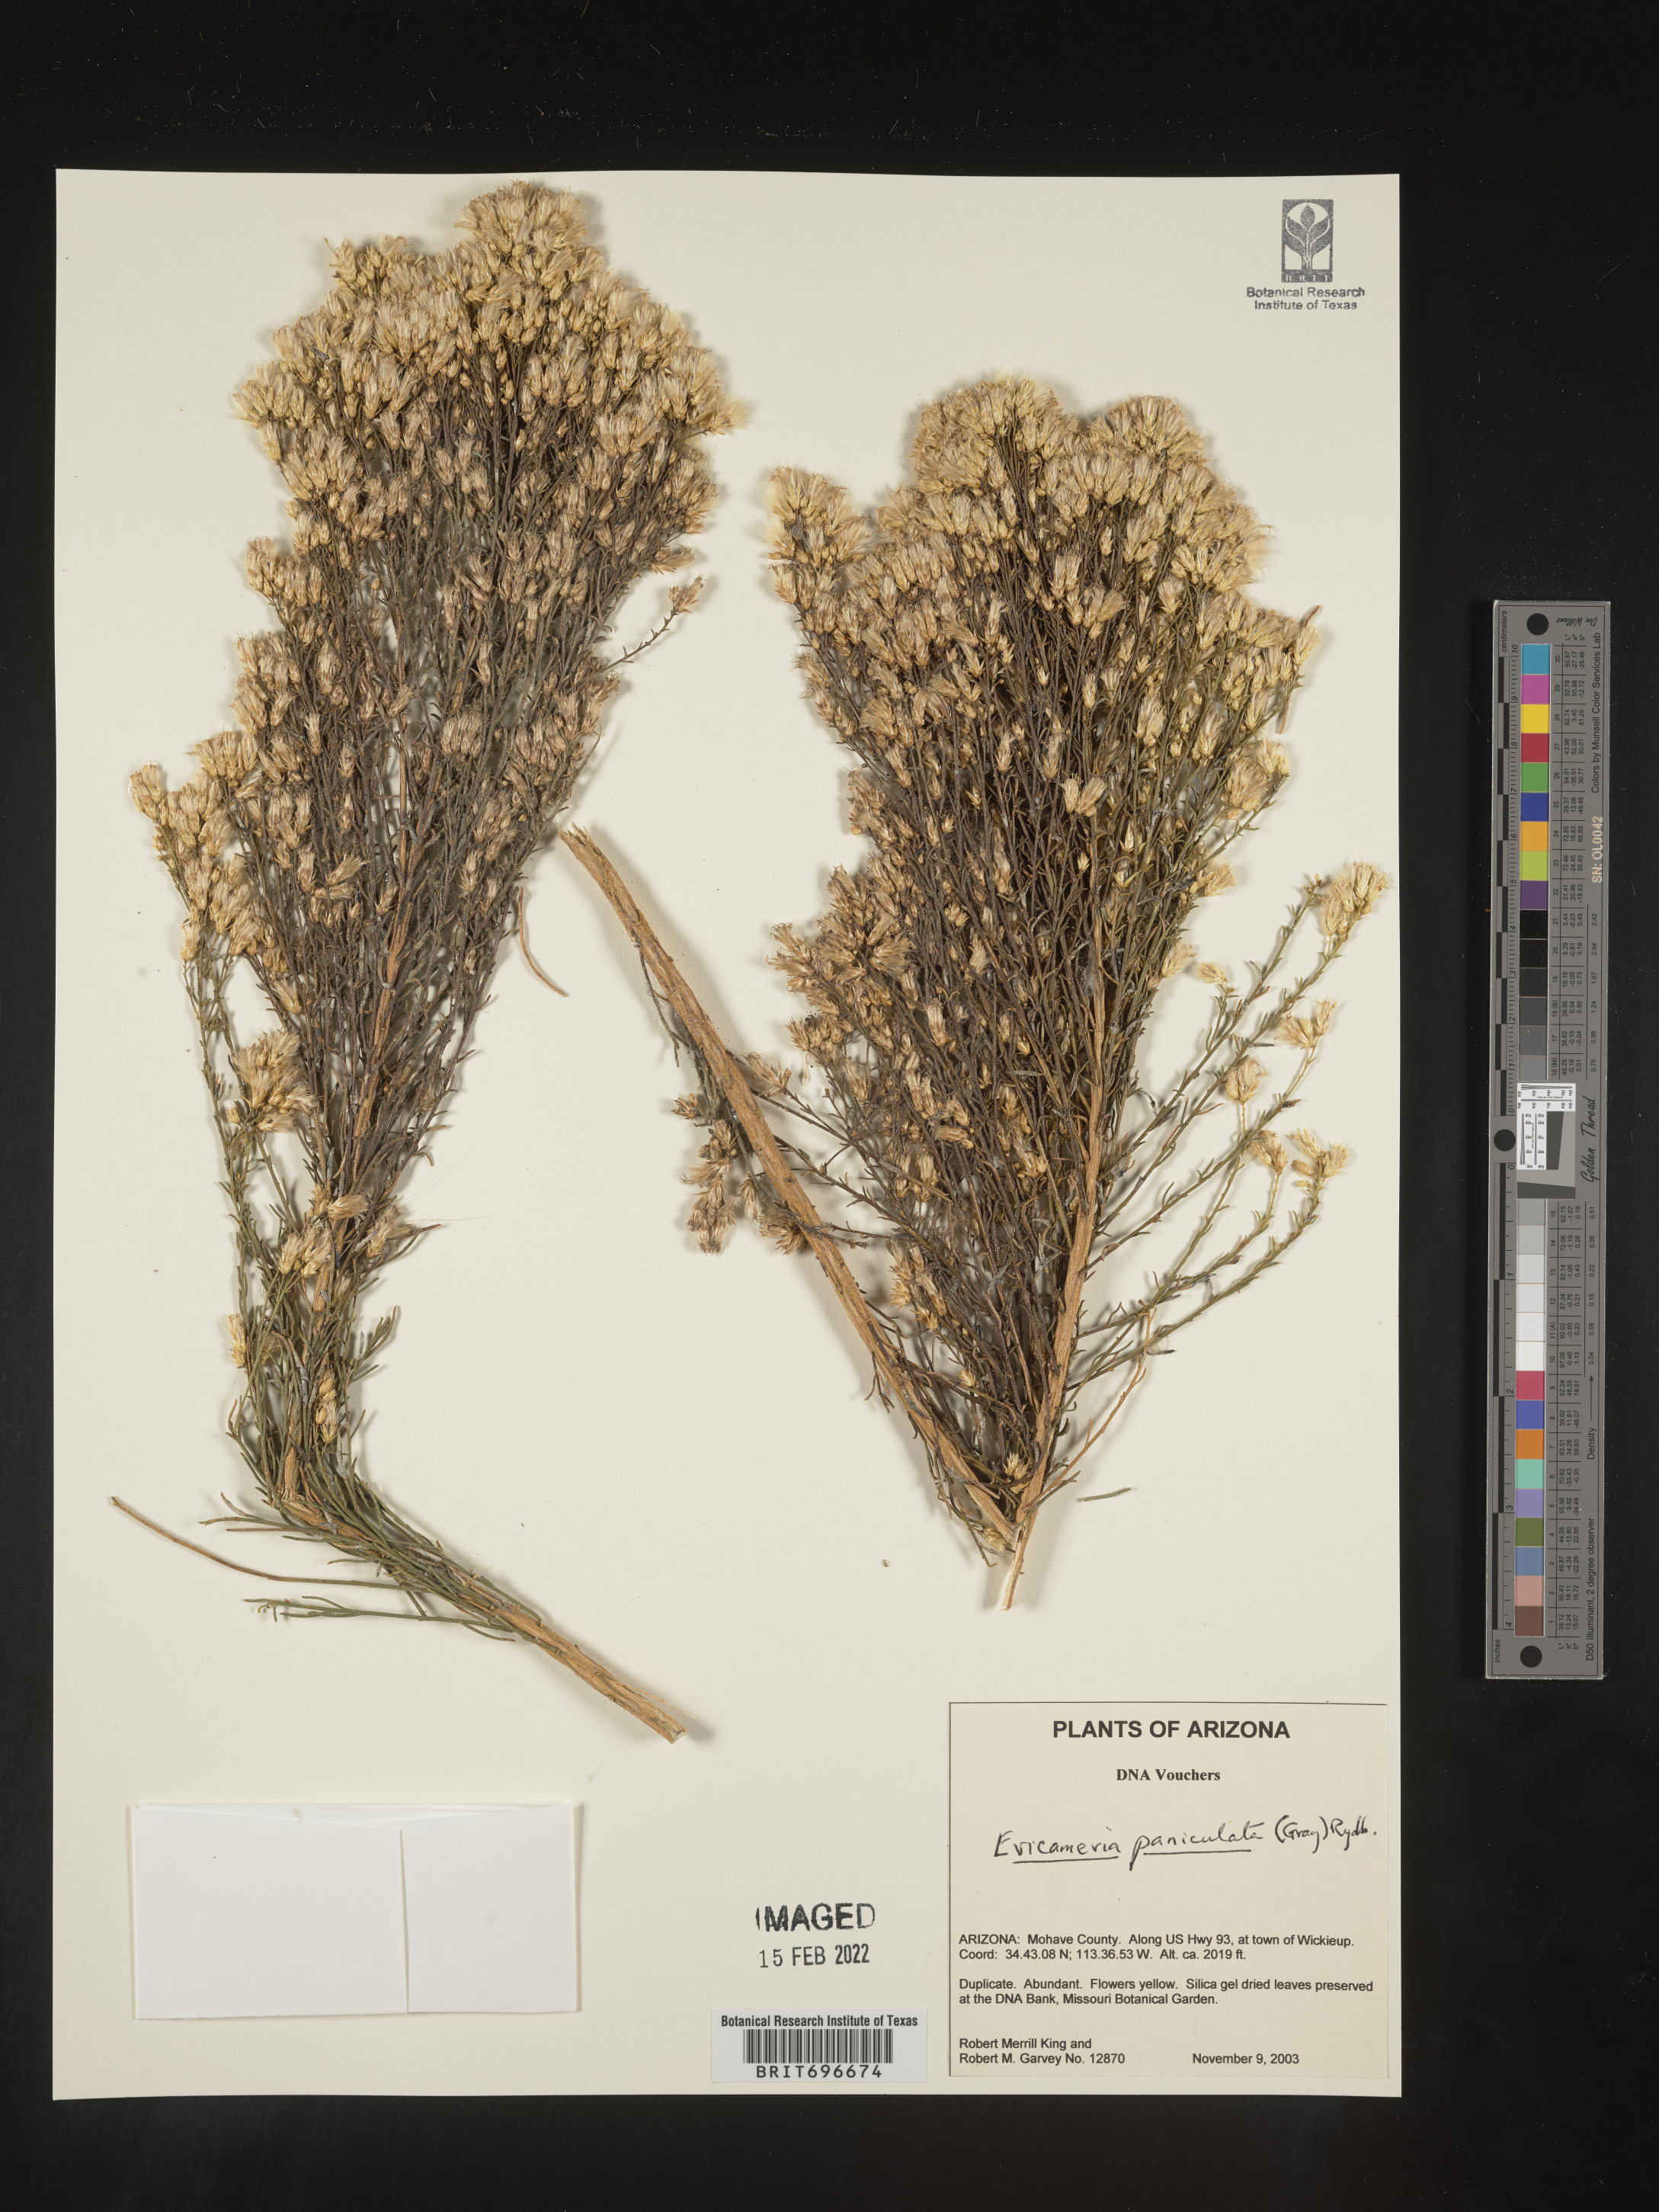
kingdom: Plantae
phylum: Tracheophyta
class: Magnoliopsida
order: Asterales
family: Asteraceae
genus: Ericameria
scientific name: Ericameria paniculata
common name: Punctate rabbitbrush
